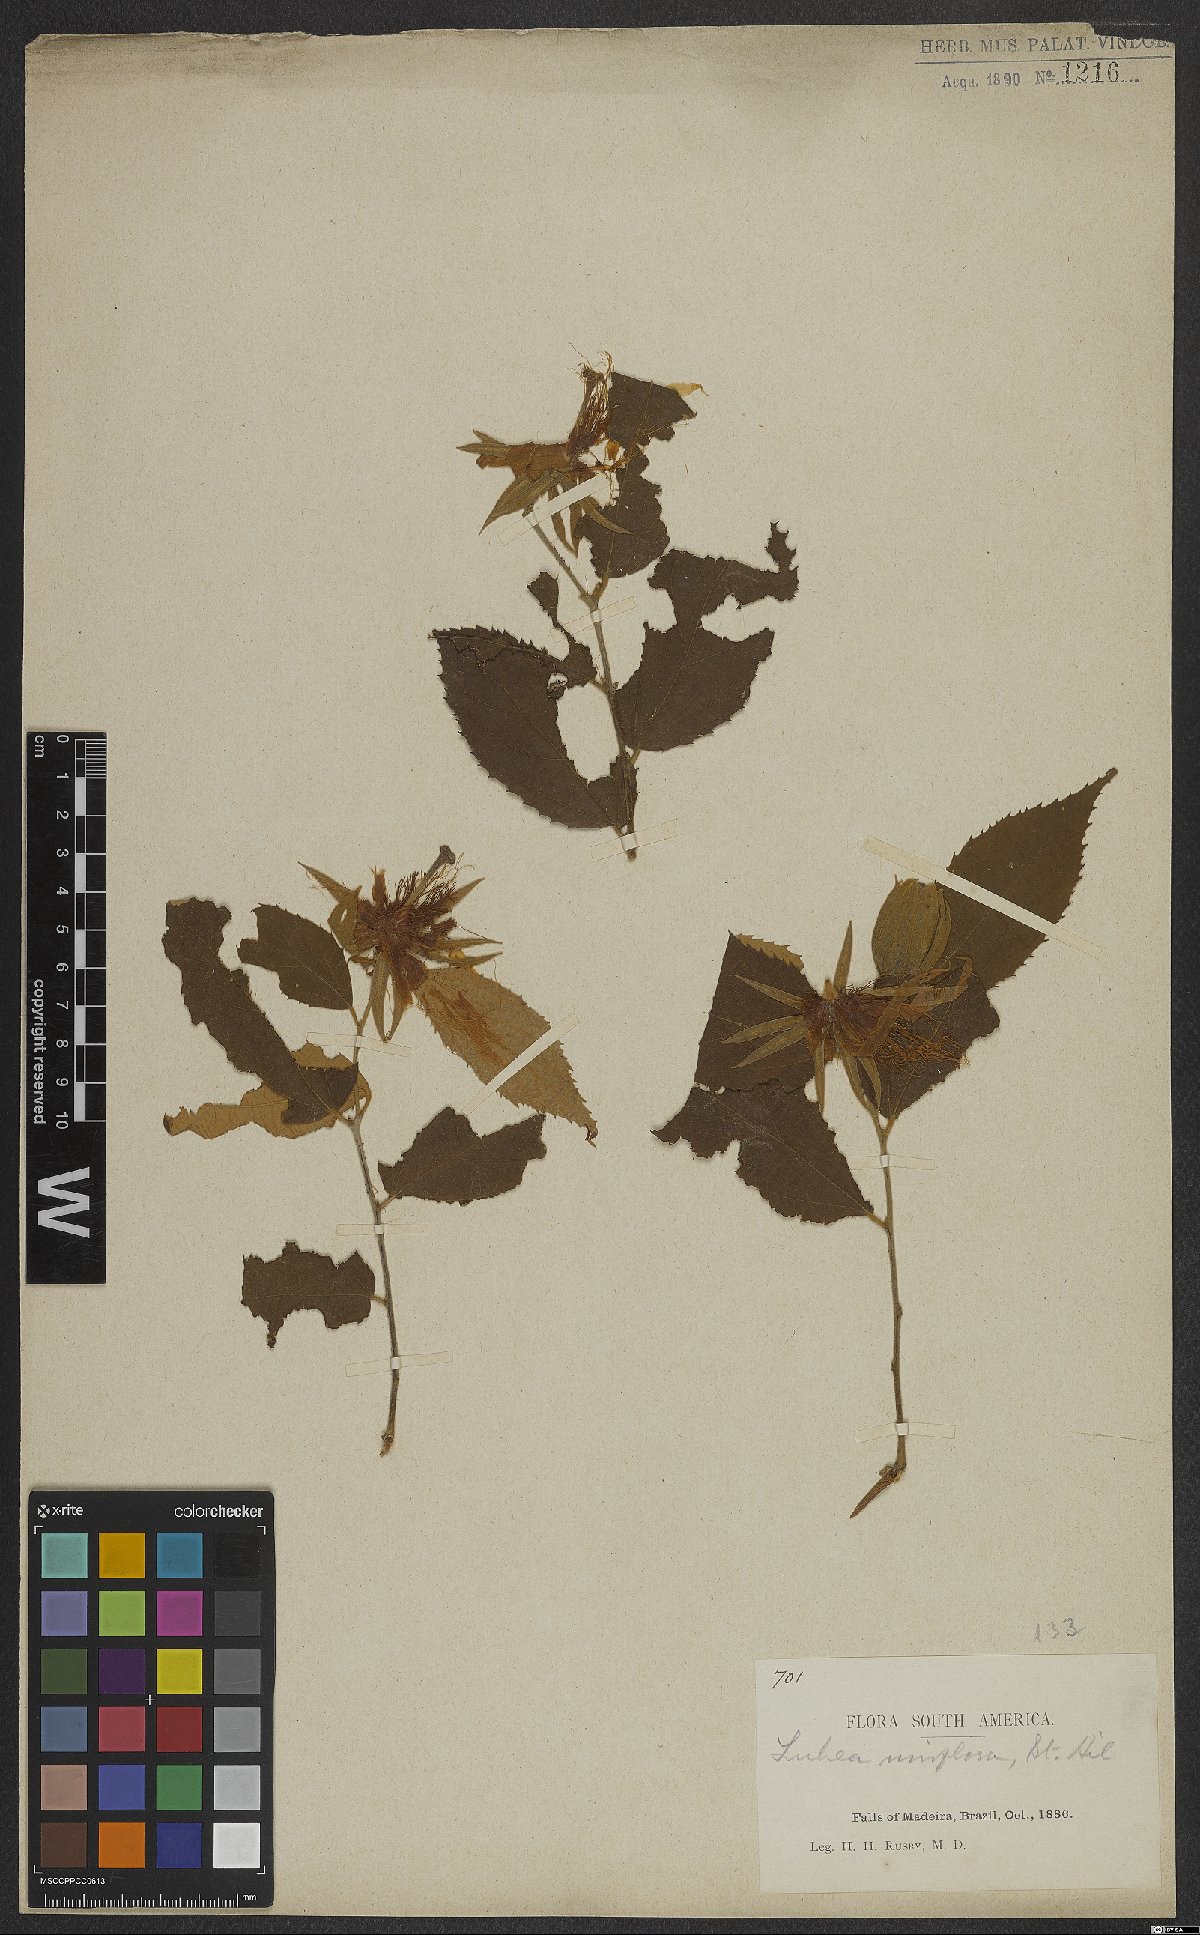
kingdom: Plantae
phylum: Tracheophyta
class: Magnoliopsida
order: Malvales
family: Malvaceae
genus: Luehea
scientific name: Luehea candicans
